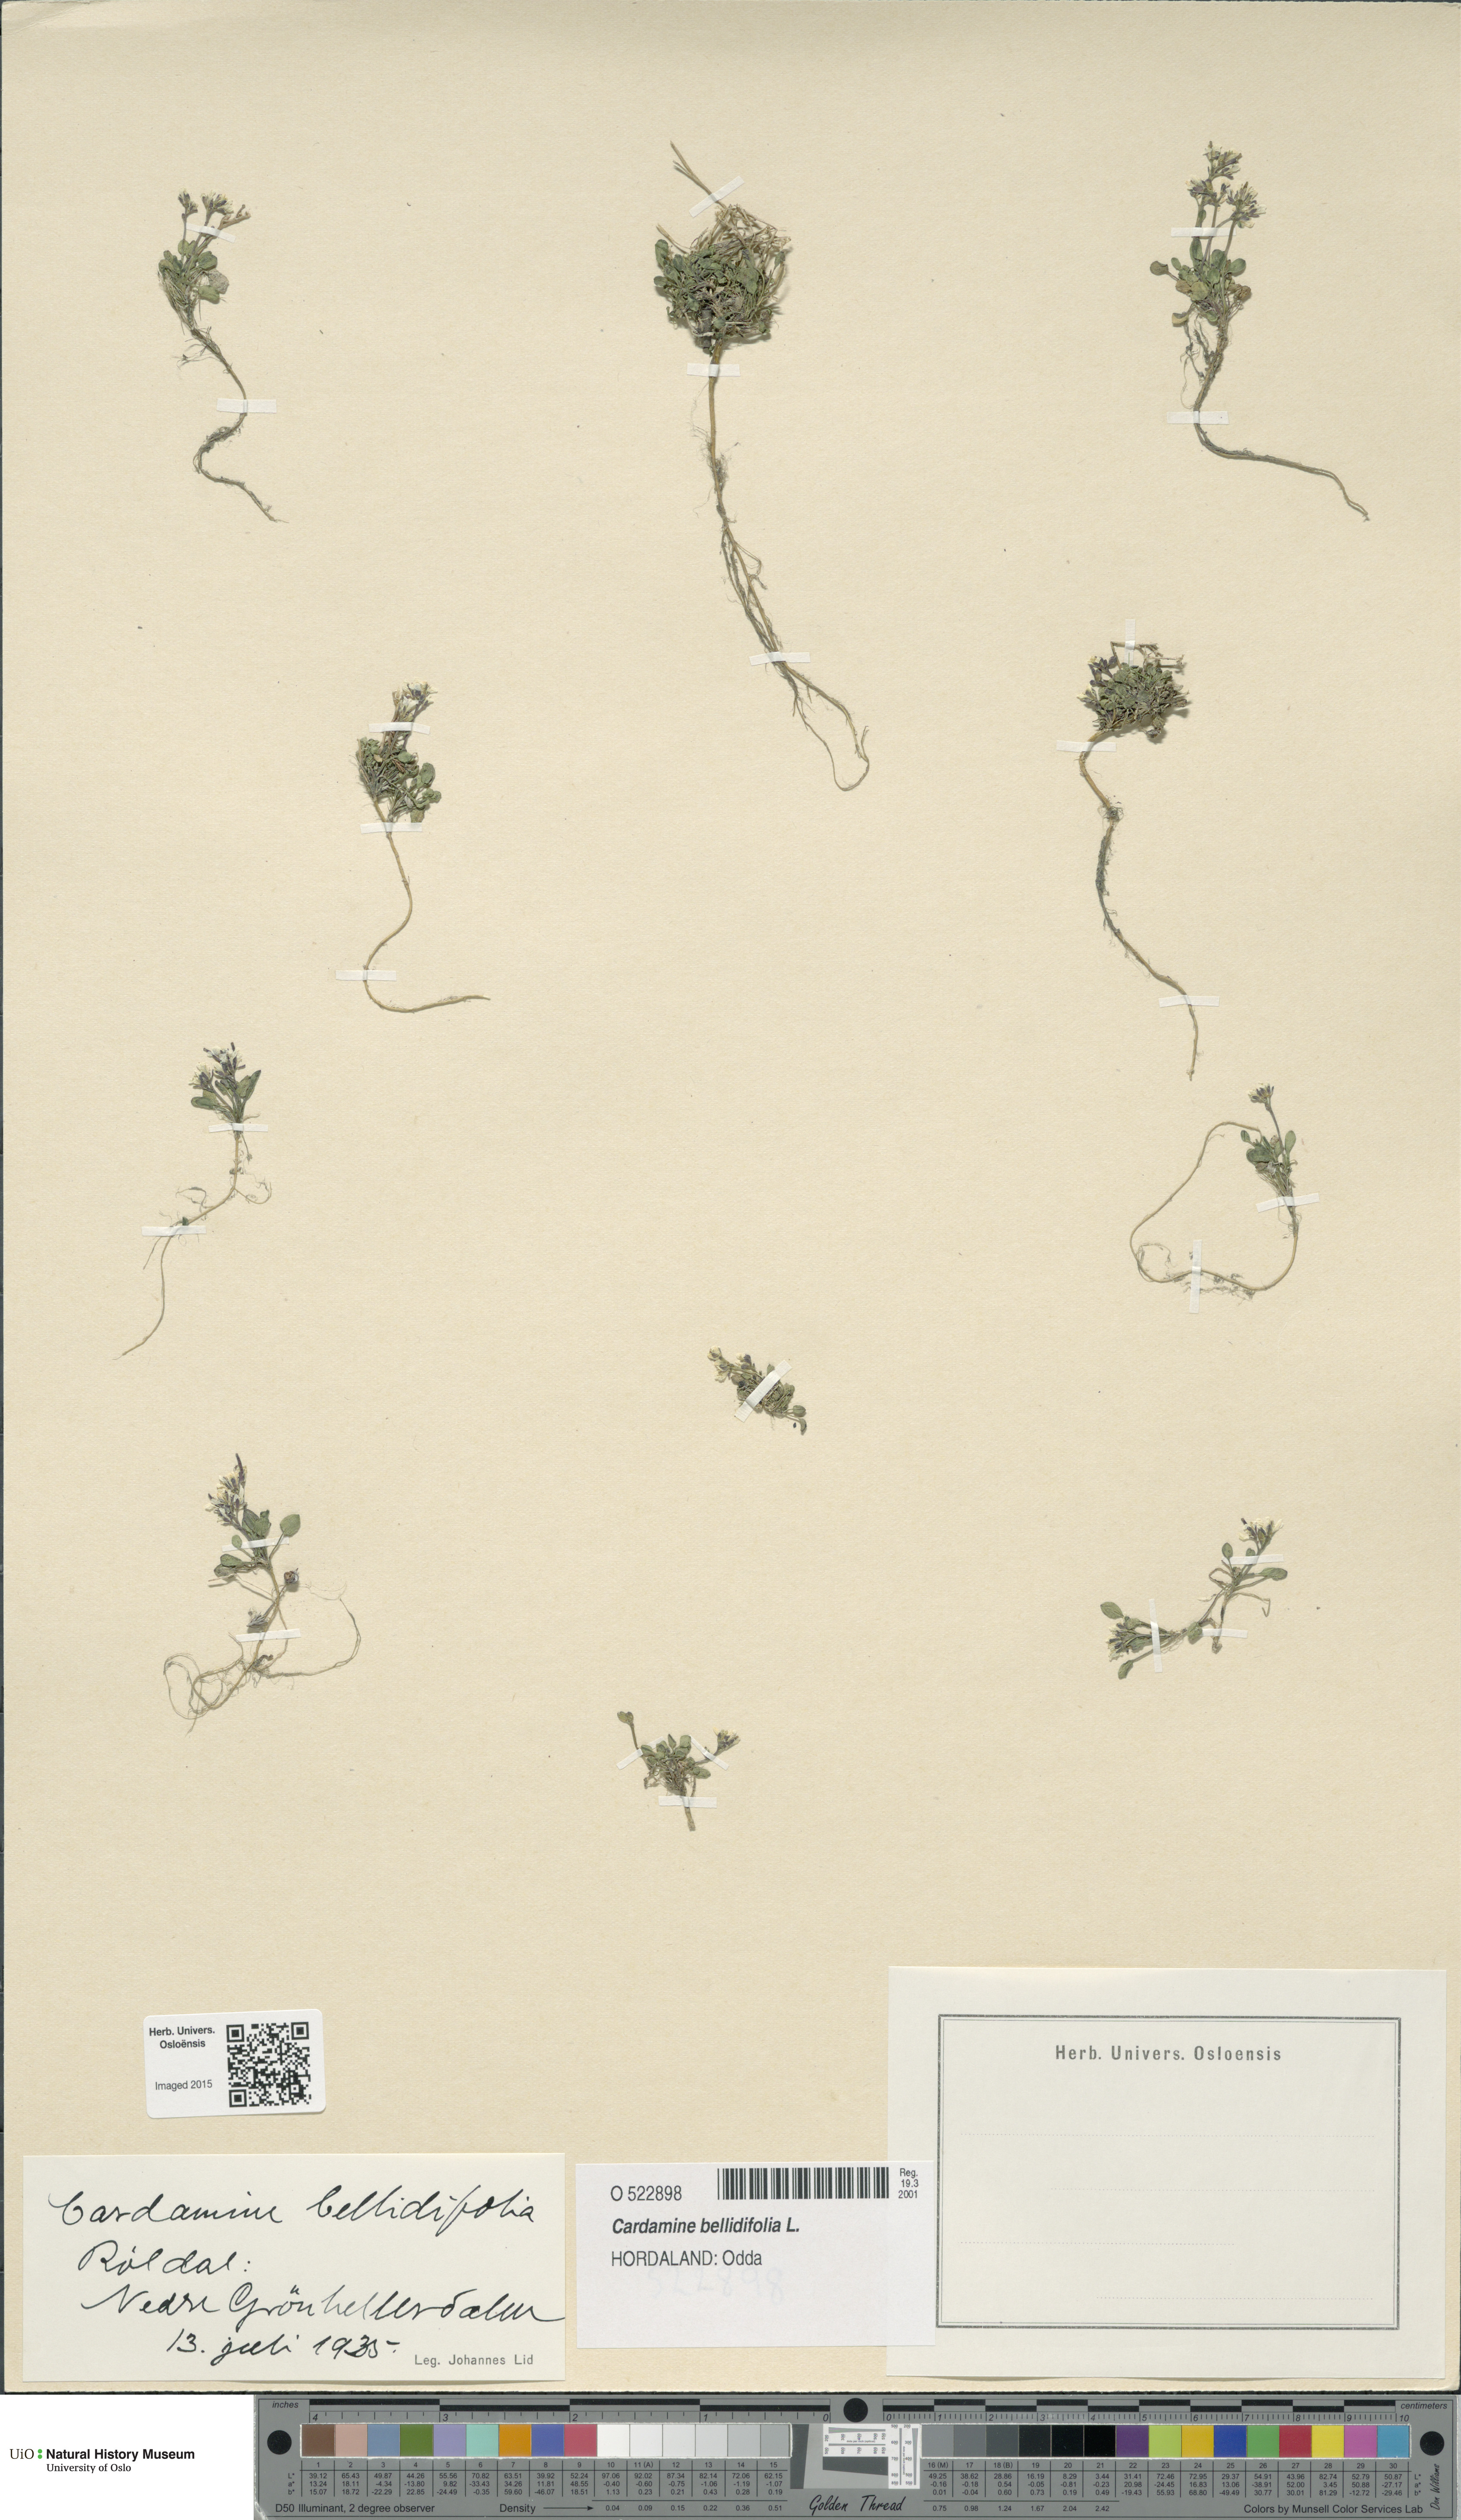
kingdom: Plantae
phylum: Tracheophyta
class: Magnoliopsida
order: Brassicales
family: Brassicaceae
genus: Cardamine
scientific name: Cardamine bellidifolia
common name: Alpine bittercress
